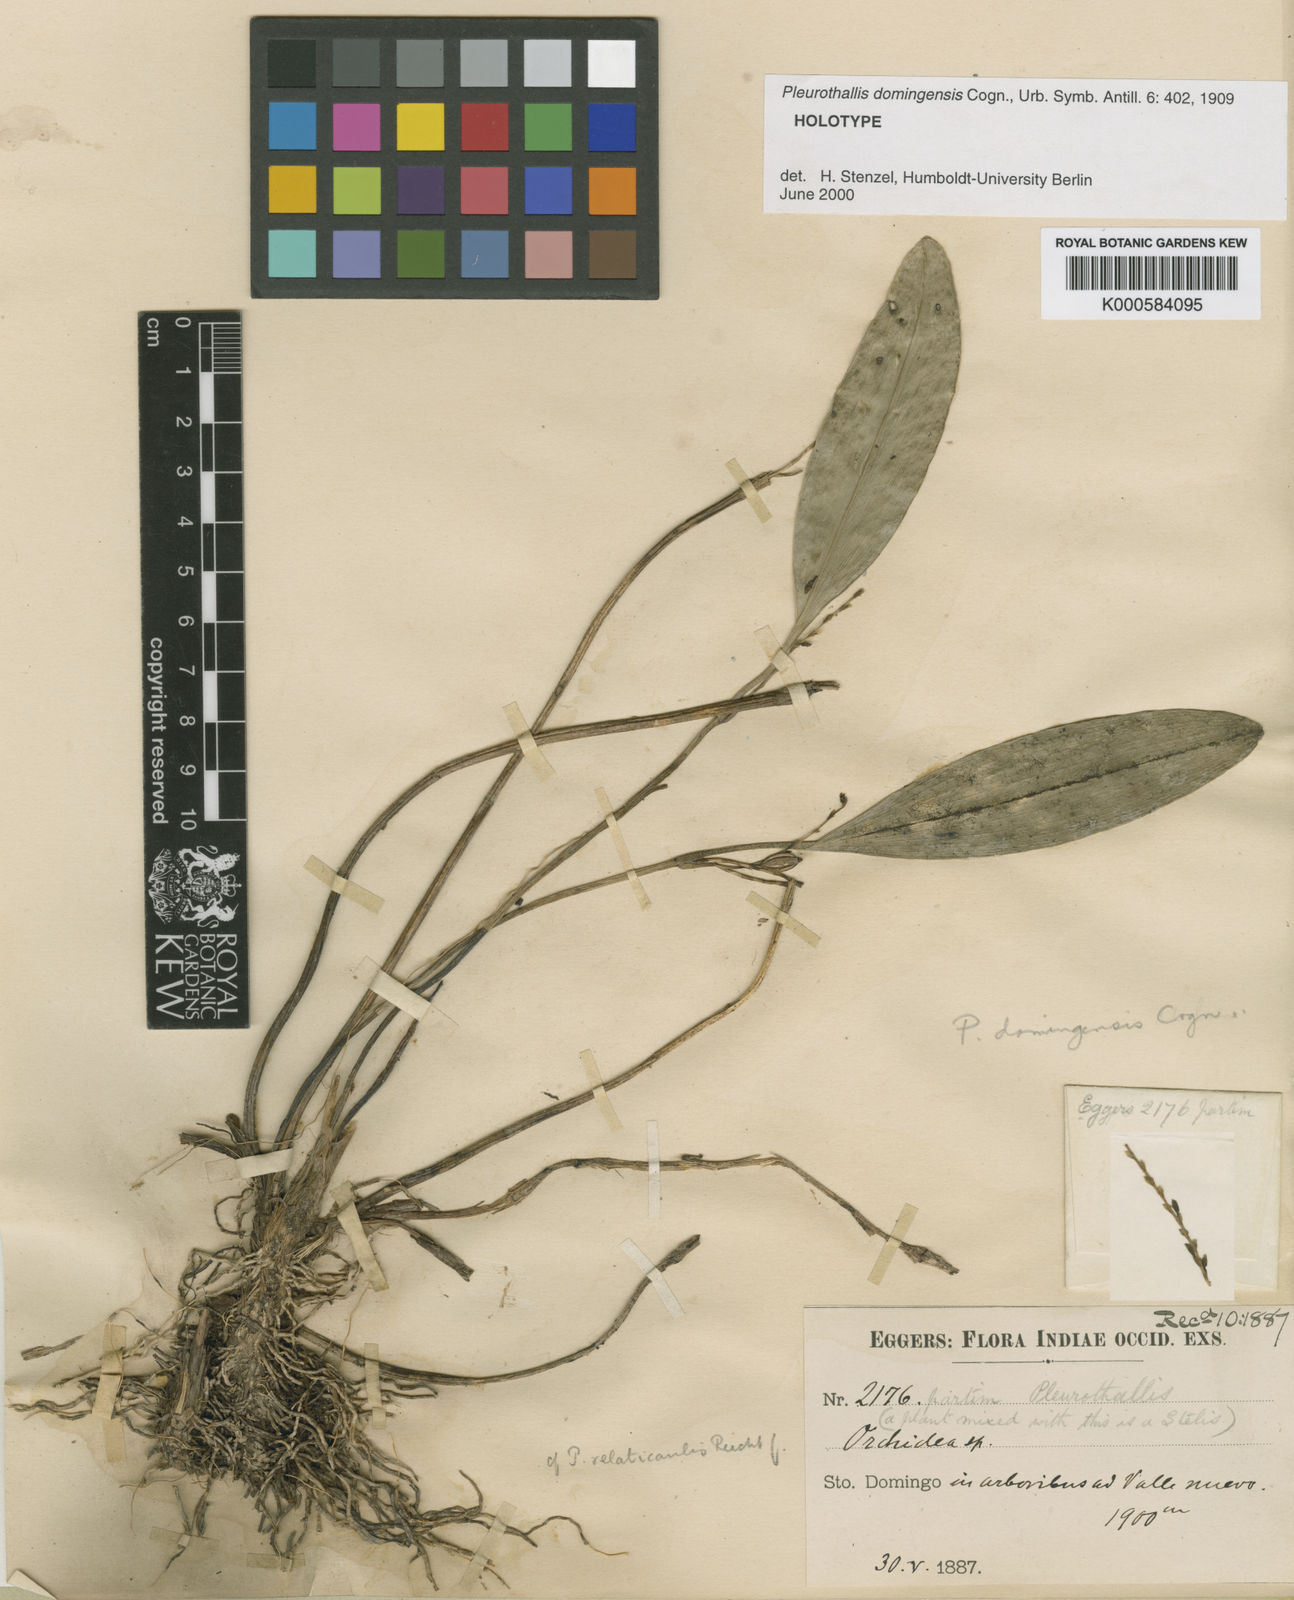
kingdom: Plantae
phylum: Tracheophyta
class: Liliopsida
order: Asparagales
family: Orchidaceae
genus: Stelis
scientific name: Stelis antillensis
